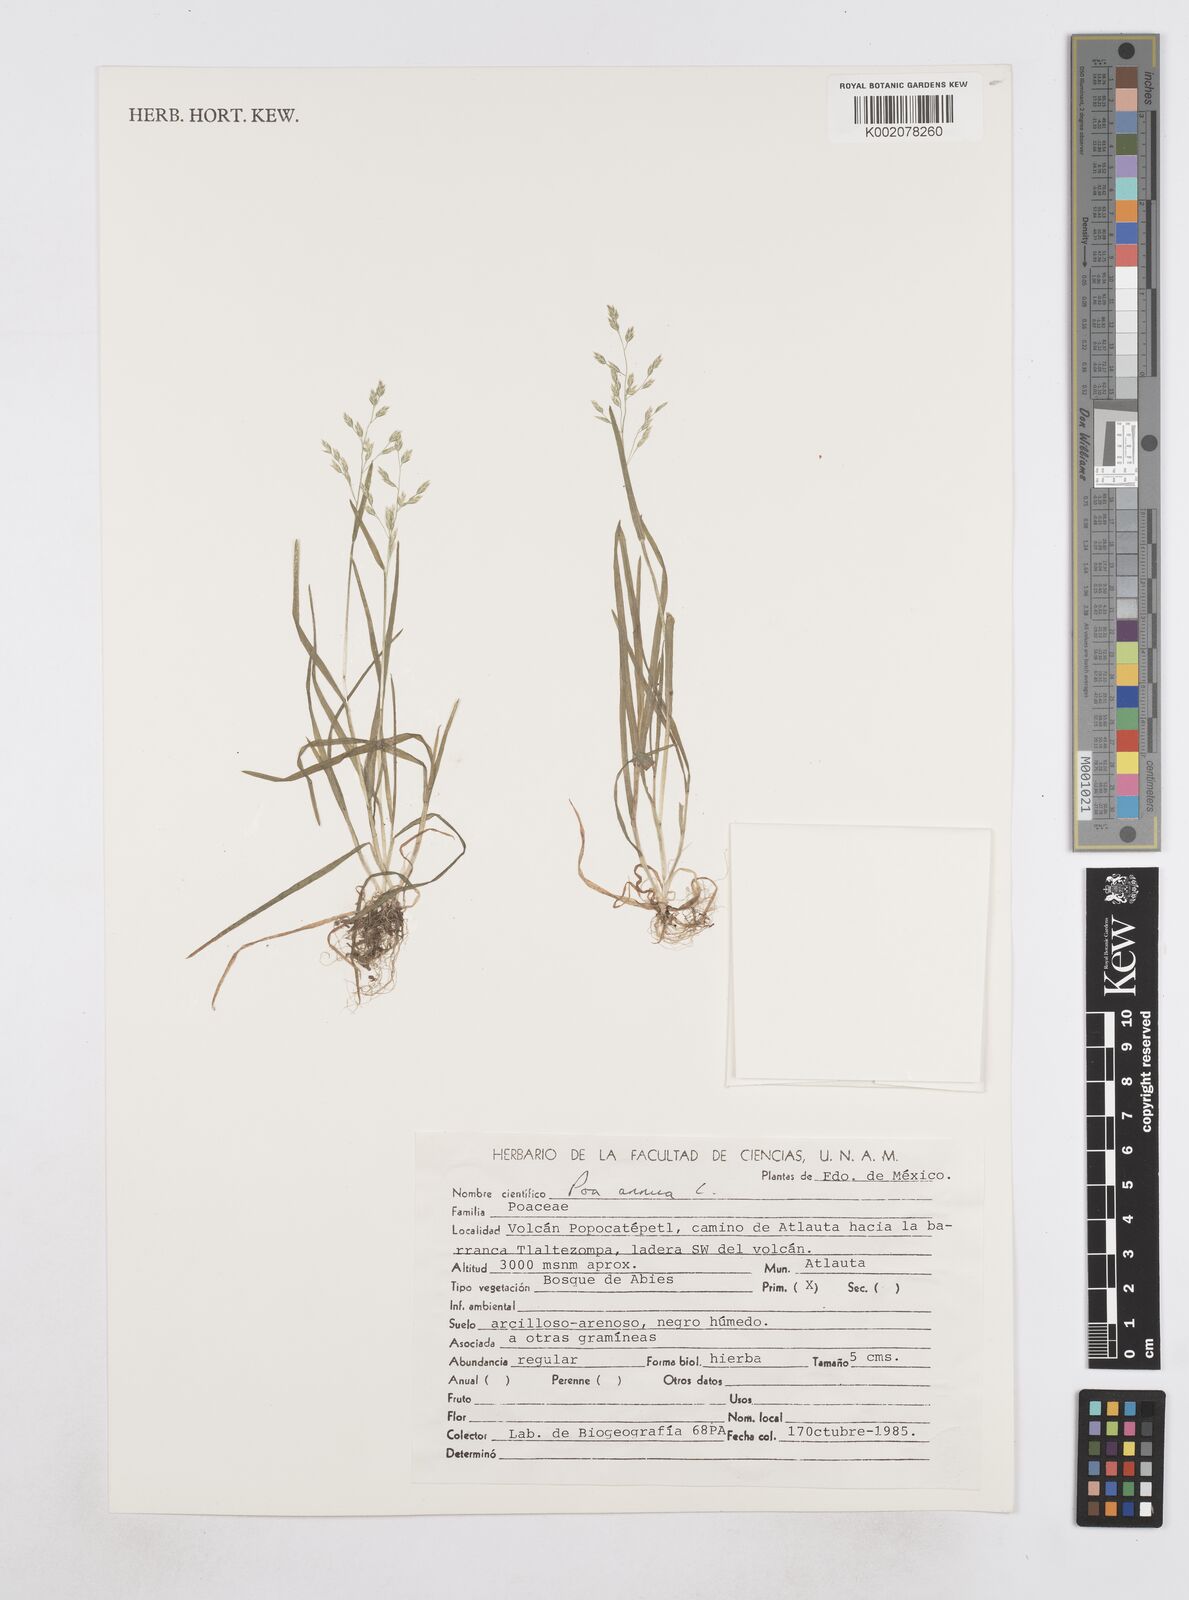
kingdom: Plantae
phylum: Tracheophyta
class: Liliopsida
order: Poales
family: Poaceae
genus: Poa
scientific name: Poa annua
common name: Annual bluegrass
